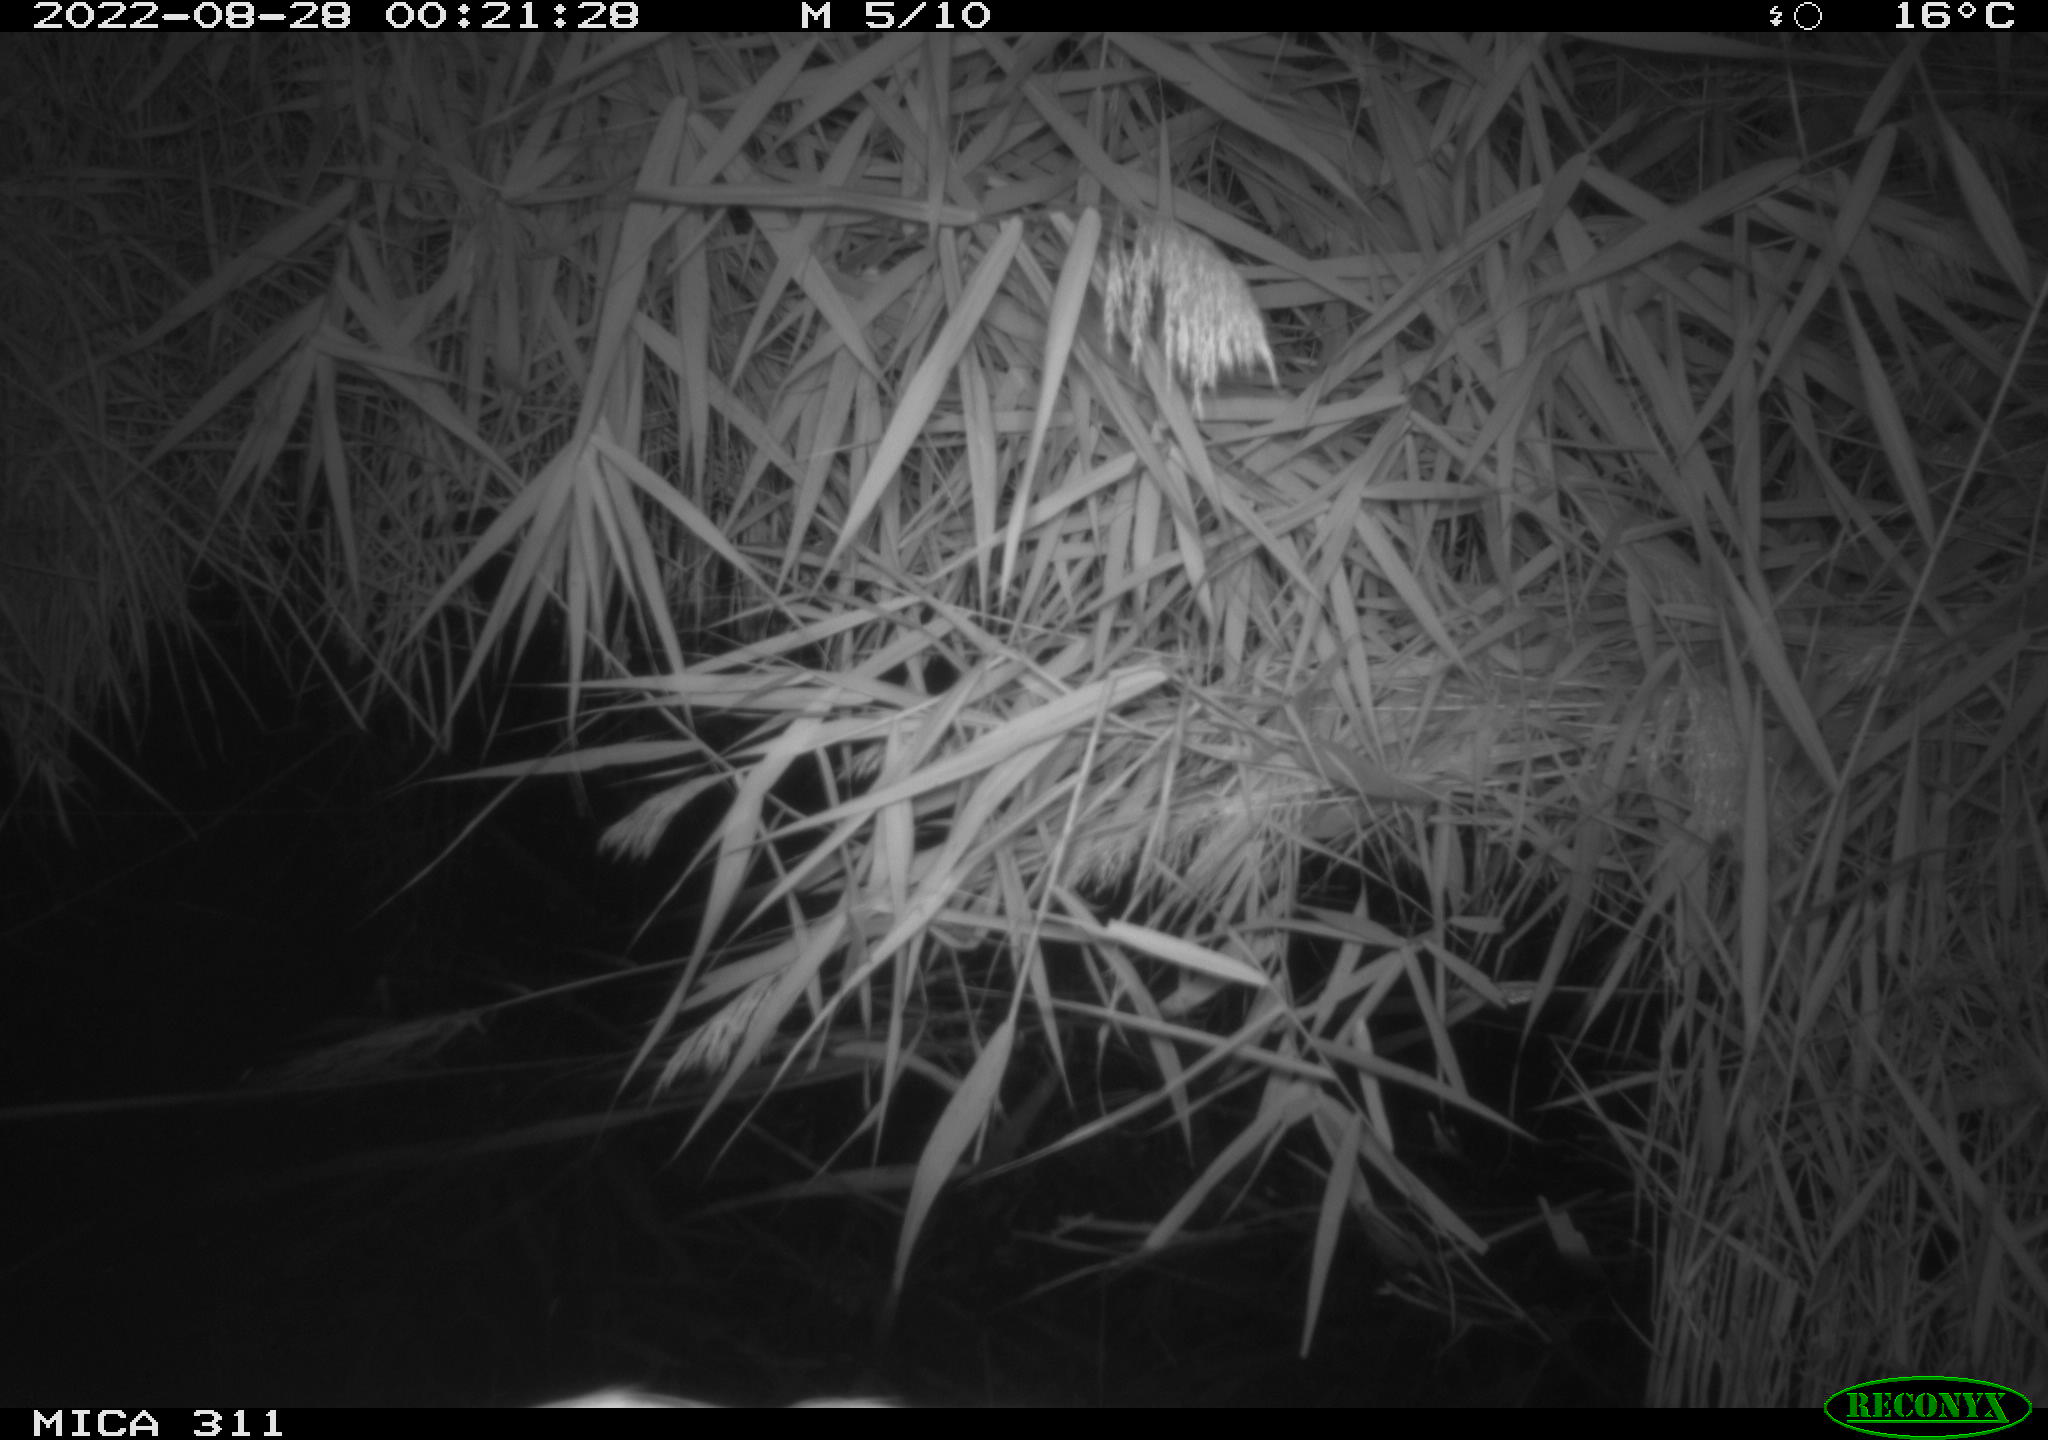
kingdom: Animalia
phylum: Chordata
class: Mammalia
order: Rodentia
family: Muridae
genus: Rattus
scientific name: Rattus norvegicus
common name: Brown rat
